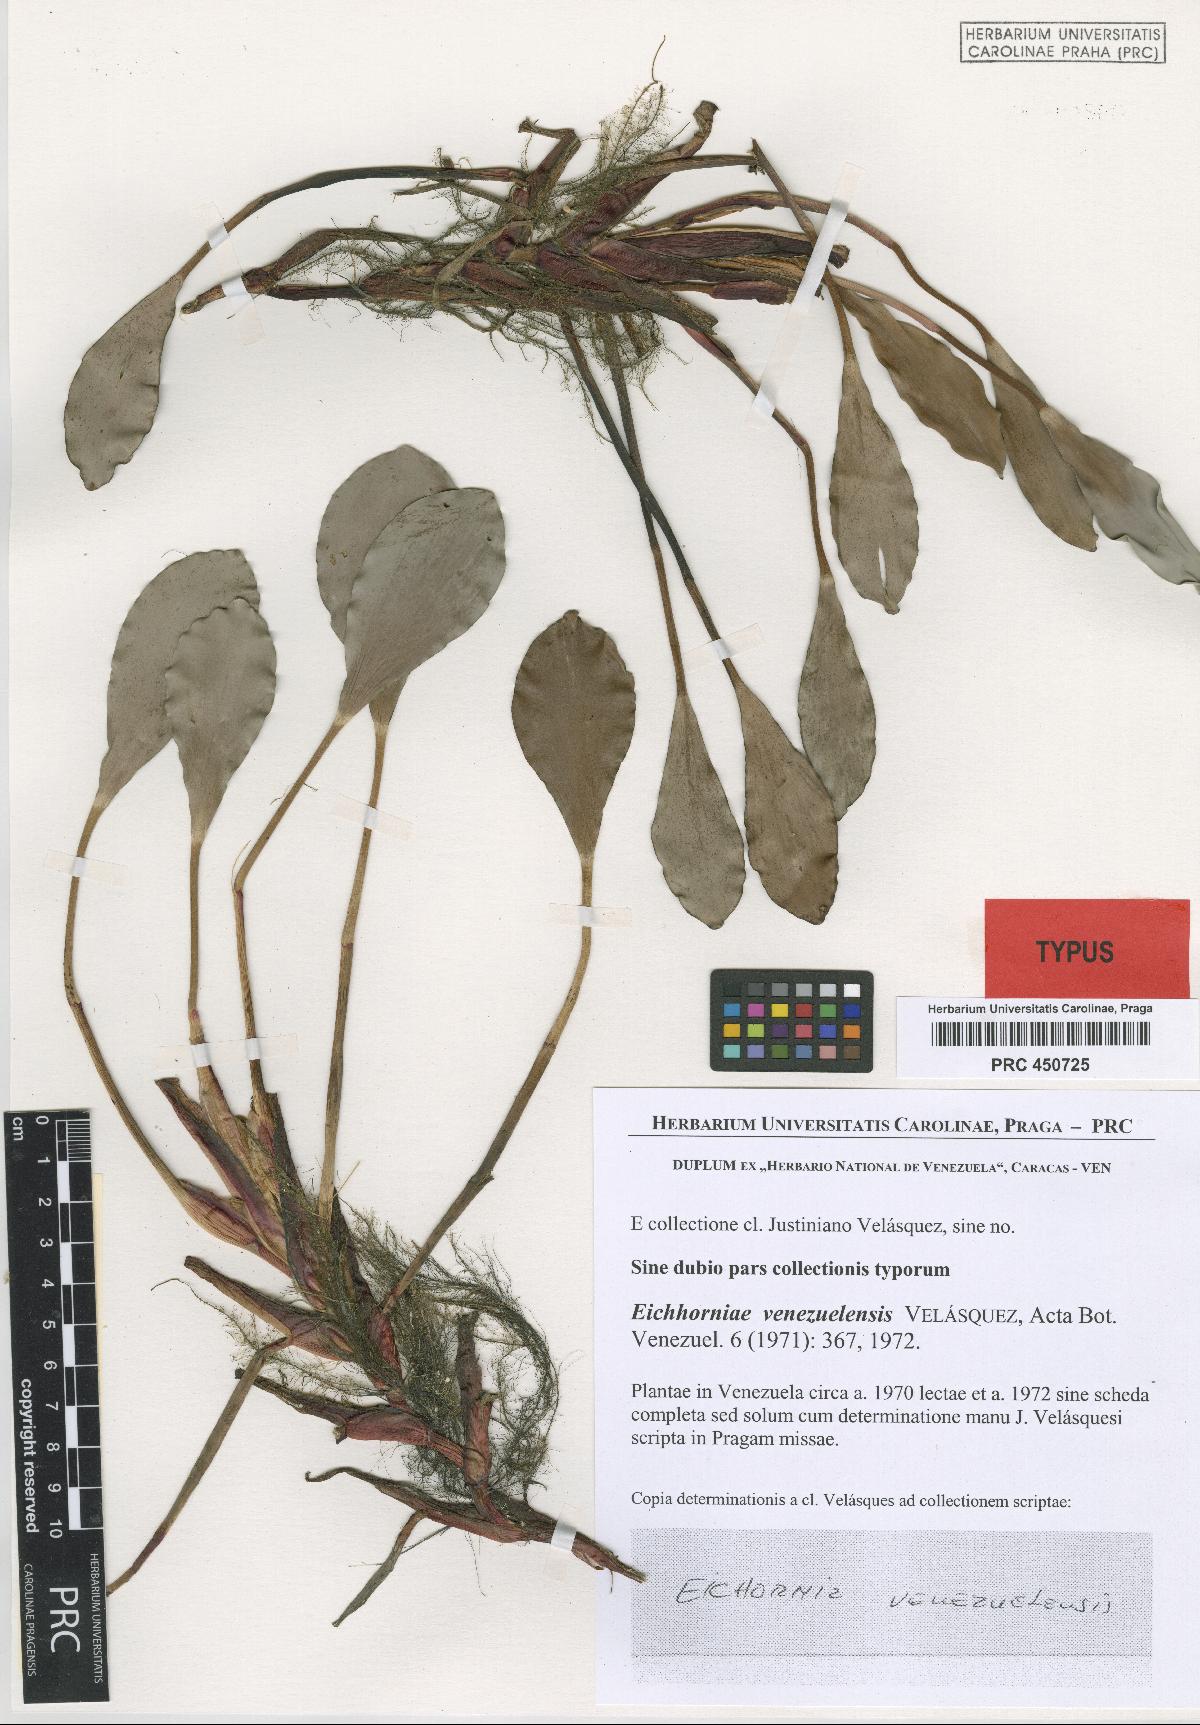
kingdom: Plantae
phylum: Tracheophyta
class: Liliopsida
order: Commelinales
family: Pontederiaceae
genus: Pontederia
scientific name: Pontederia heterosperma
